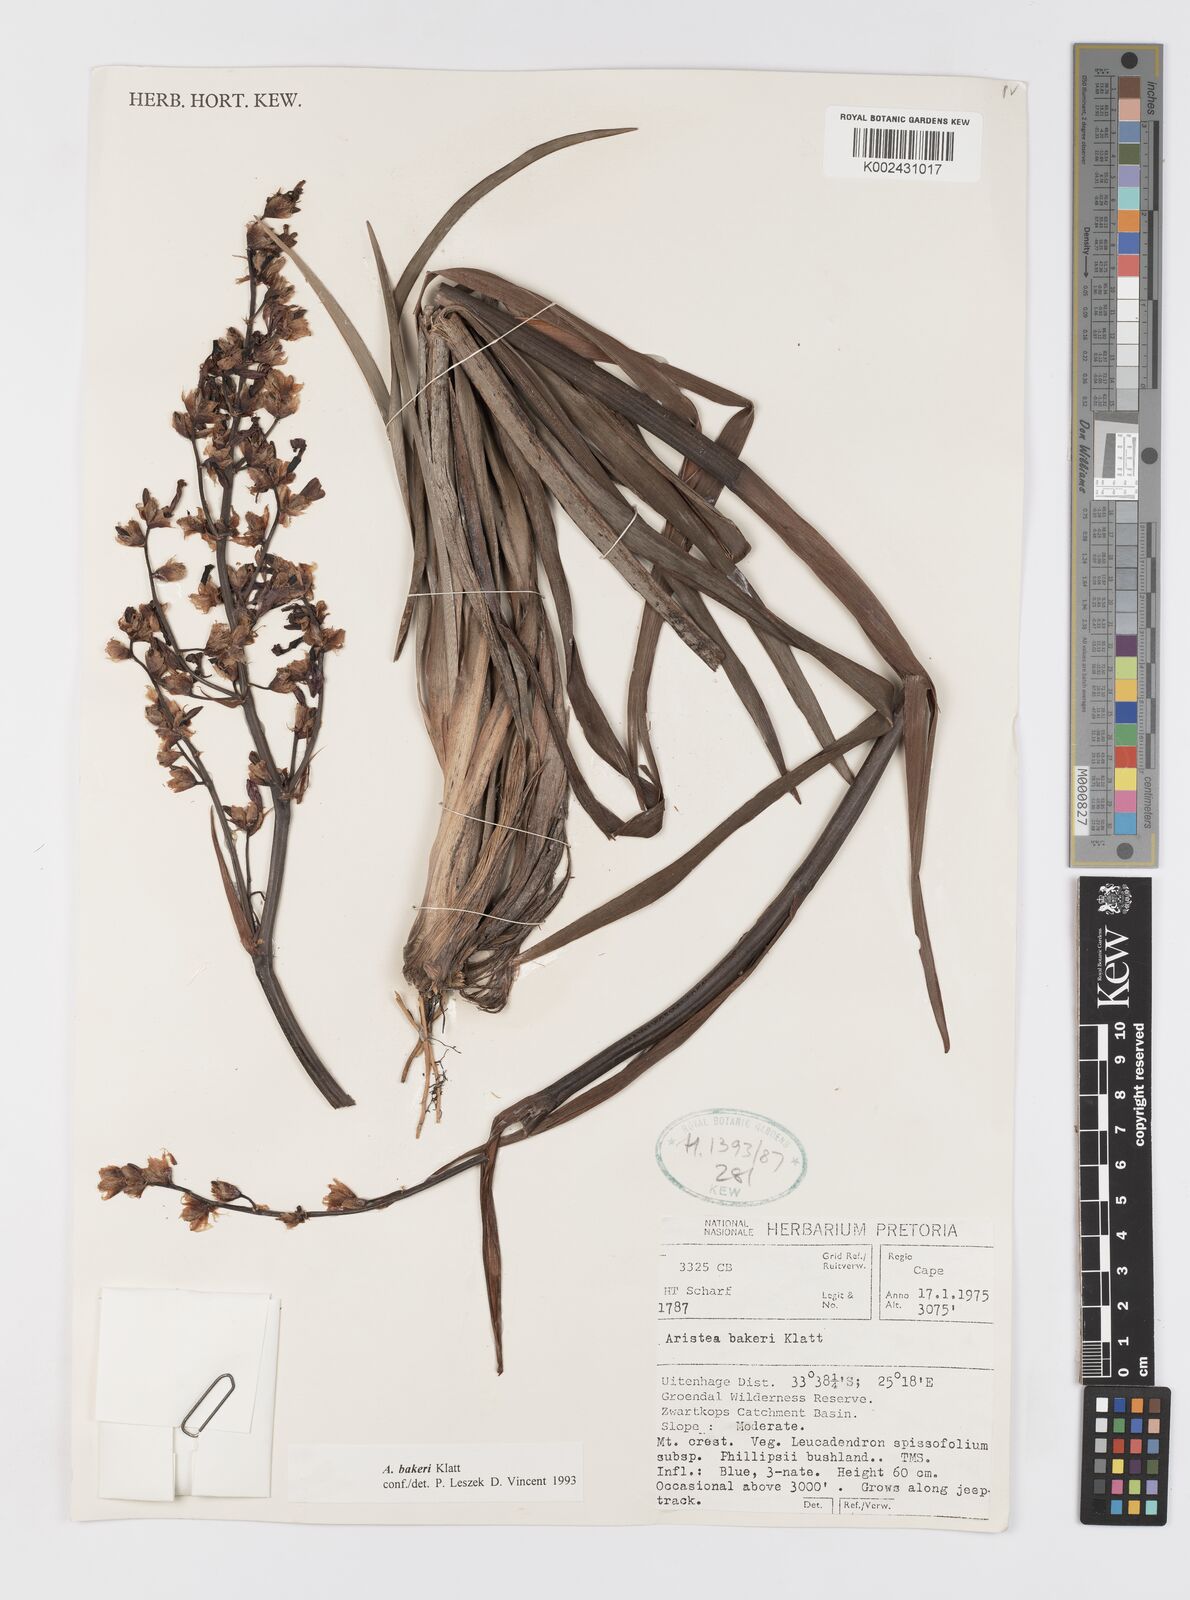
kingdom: Plantae
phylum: Tracheophyta
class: Liliopsida
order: Asparagales
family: Iridaceae
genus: Aristea
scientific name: Aristea bakeri
